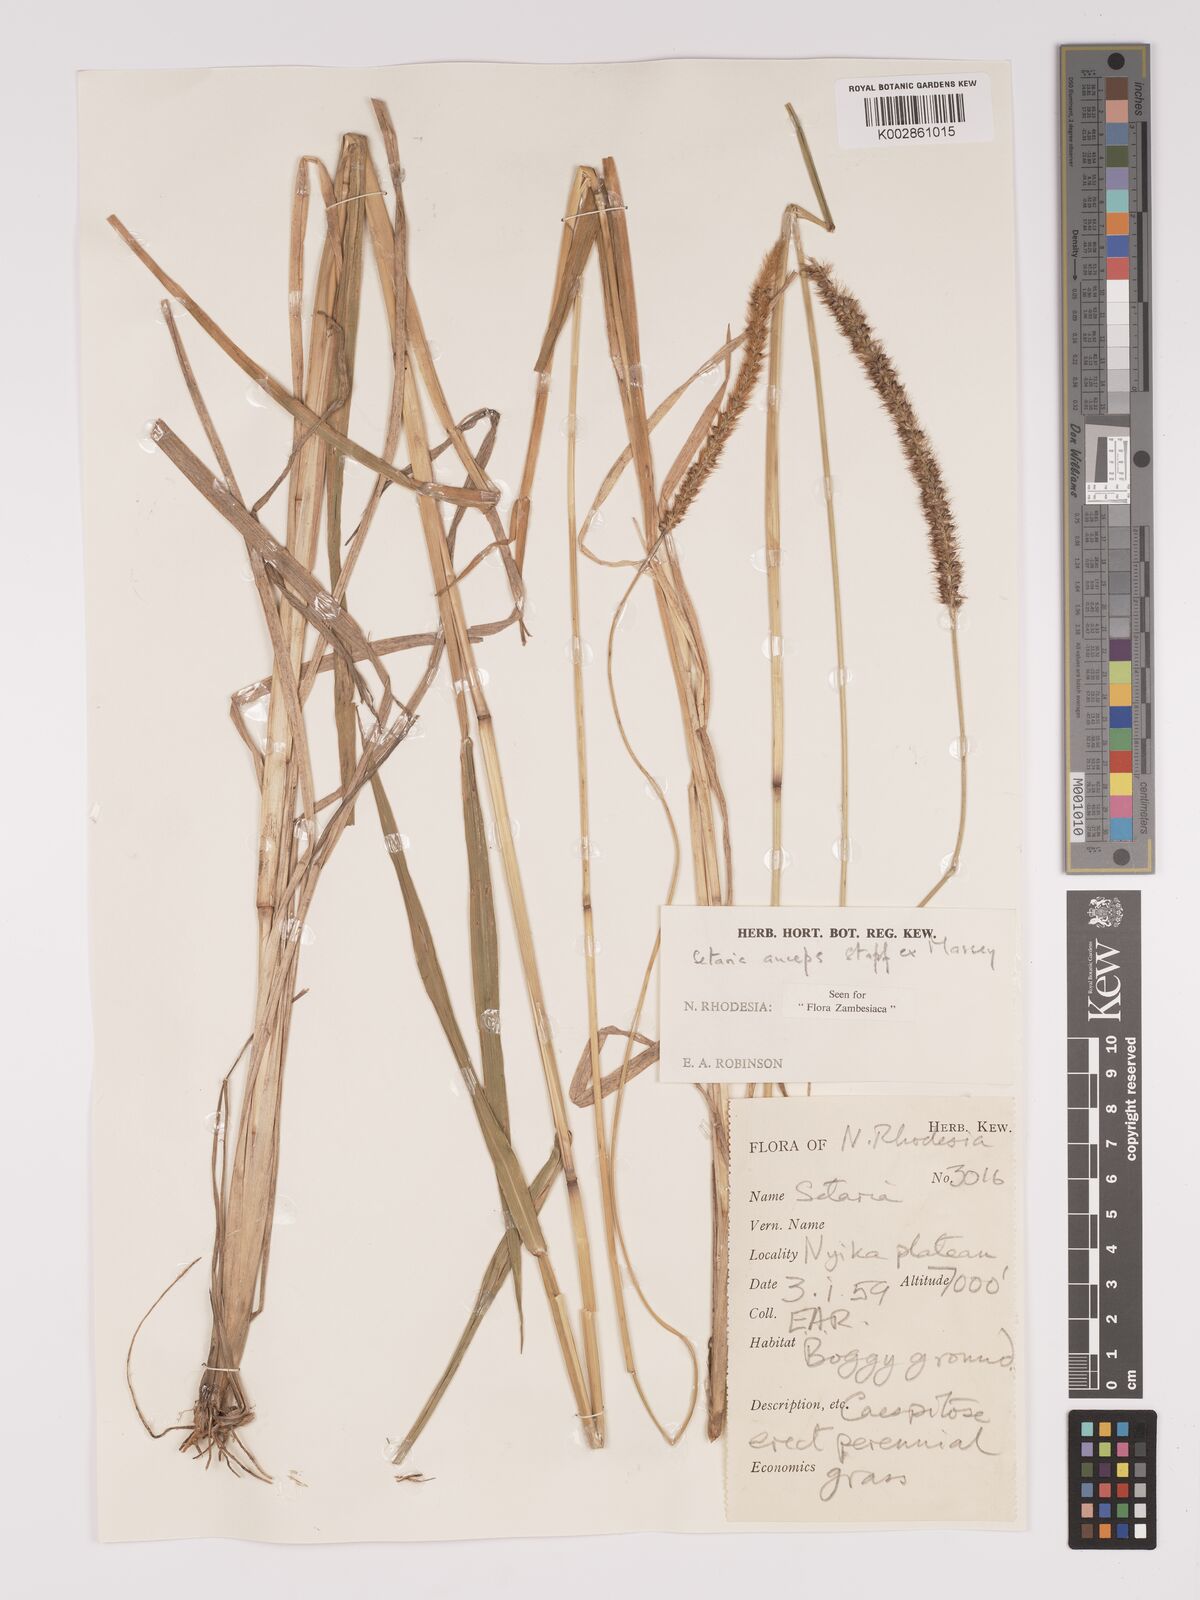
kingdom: Plantae
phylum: Tracheophyta
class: Liliopsida
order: Poales
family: Poaceae
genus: Setaria
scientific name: Setaria sphacelata
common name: African bristlegrass
